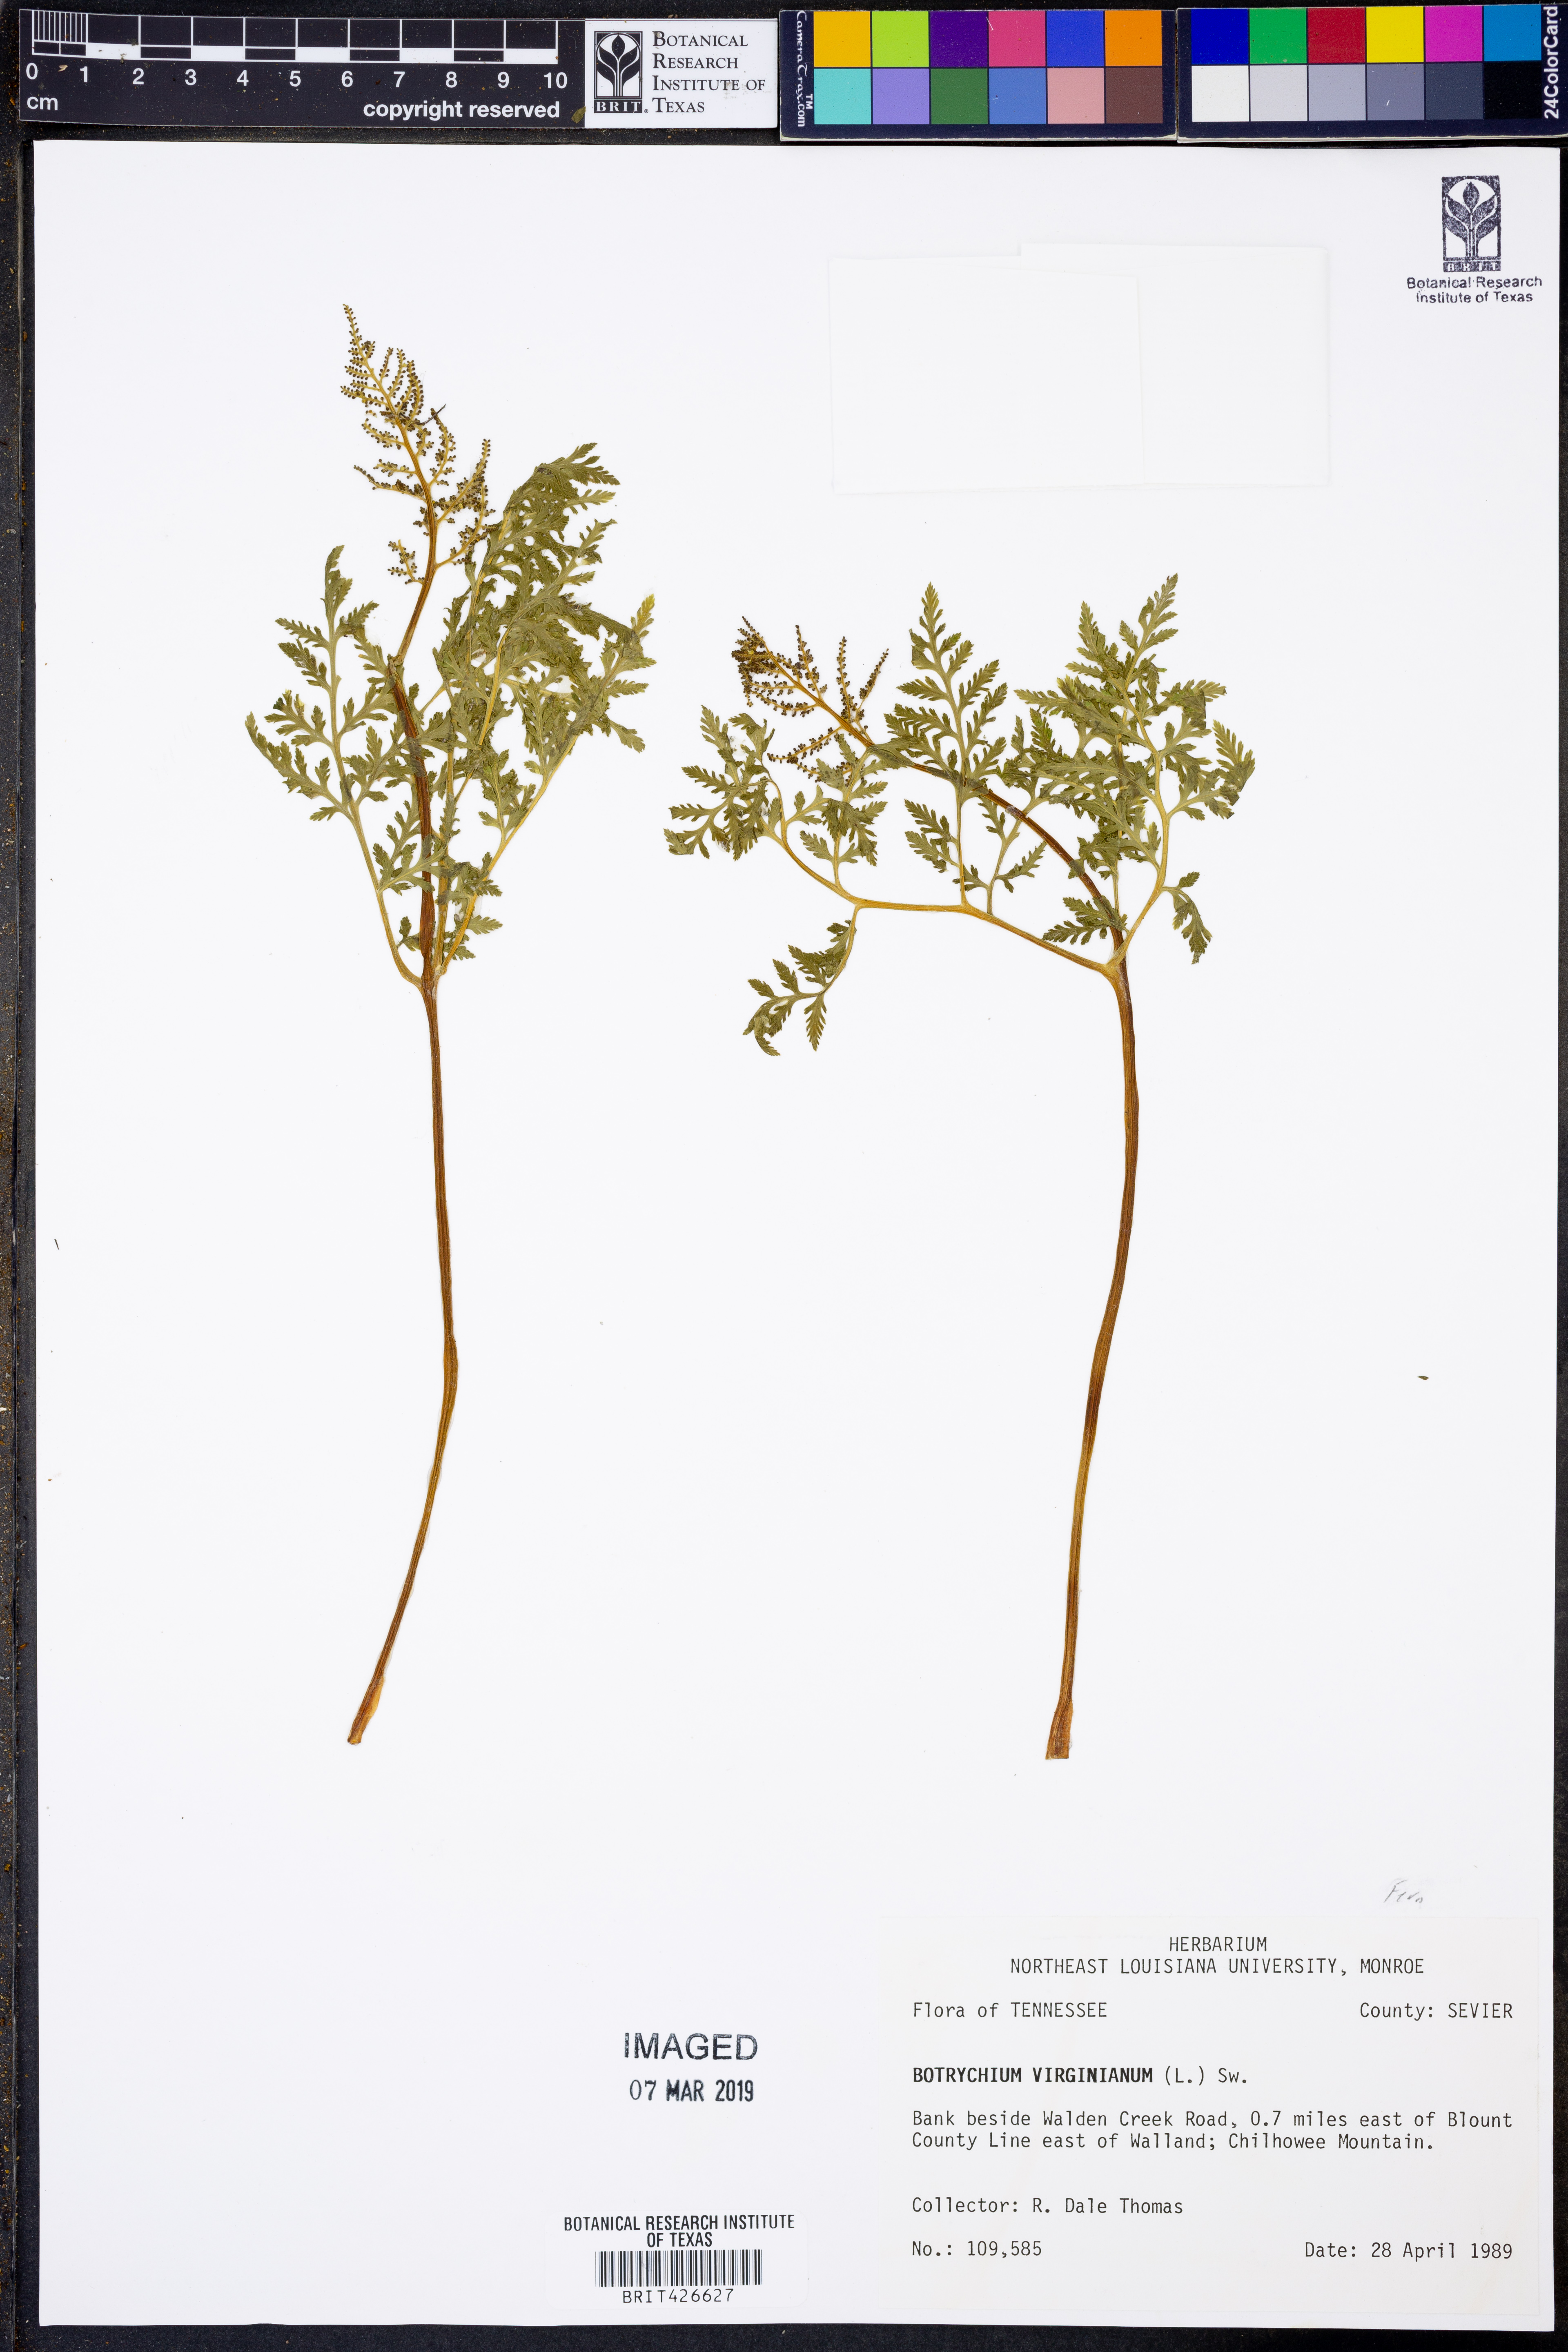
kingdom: Plantae
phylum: Tracheophyta
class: Polypodiopsida
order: Ophioglossales
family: Ophioglossaceae
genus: Botrypus
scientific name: Botrypus virginianus
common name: Common grapefern
